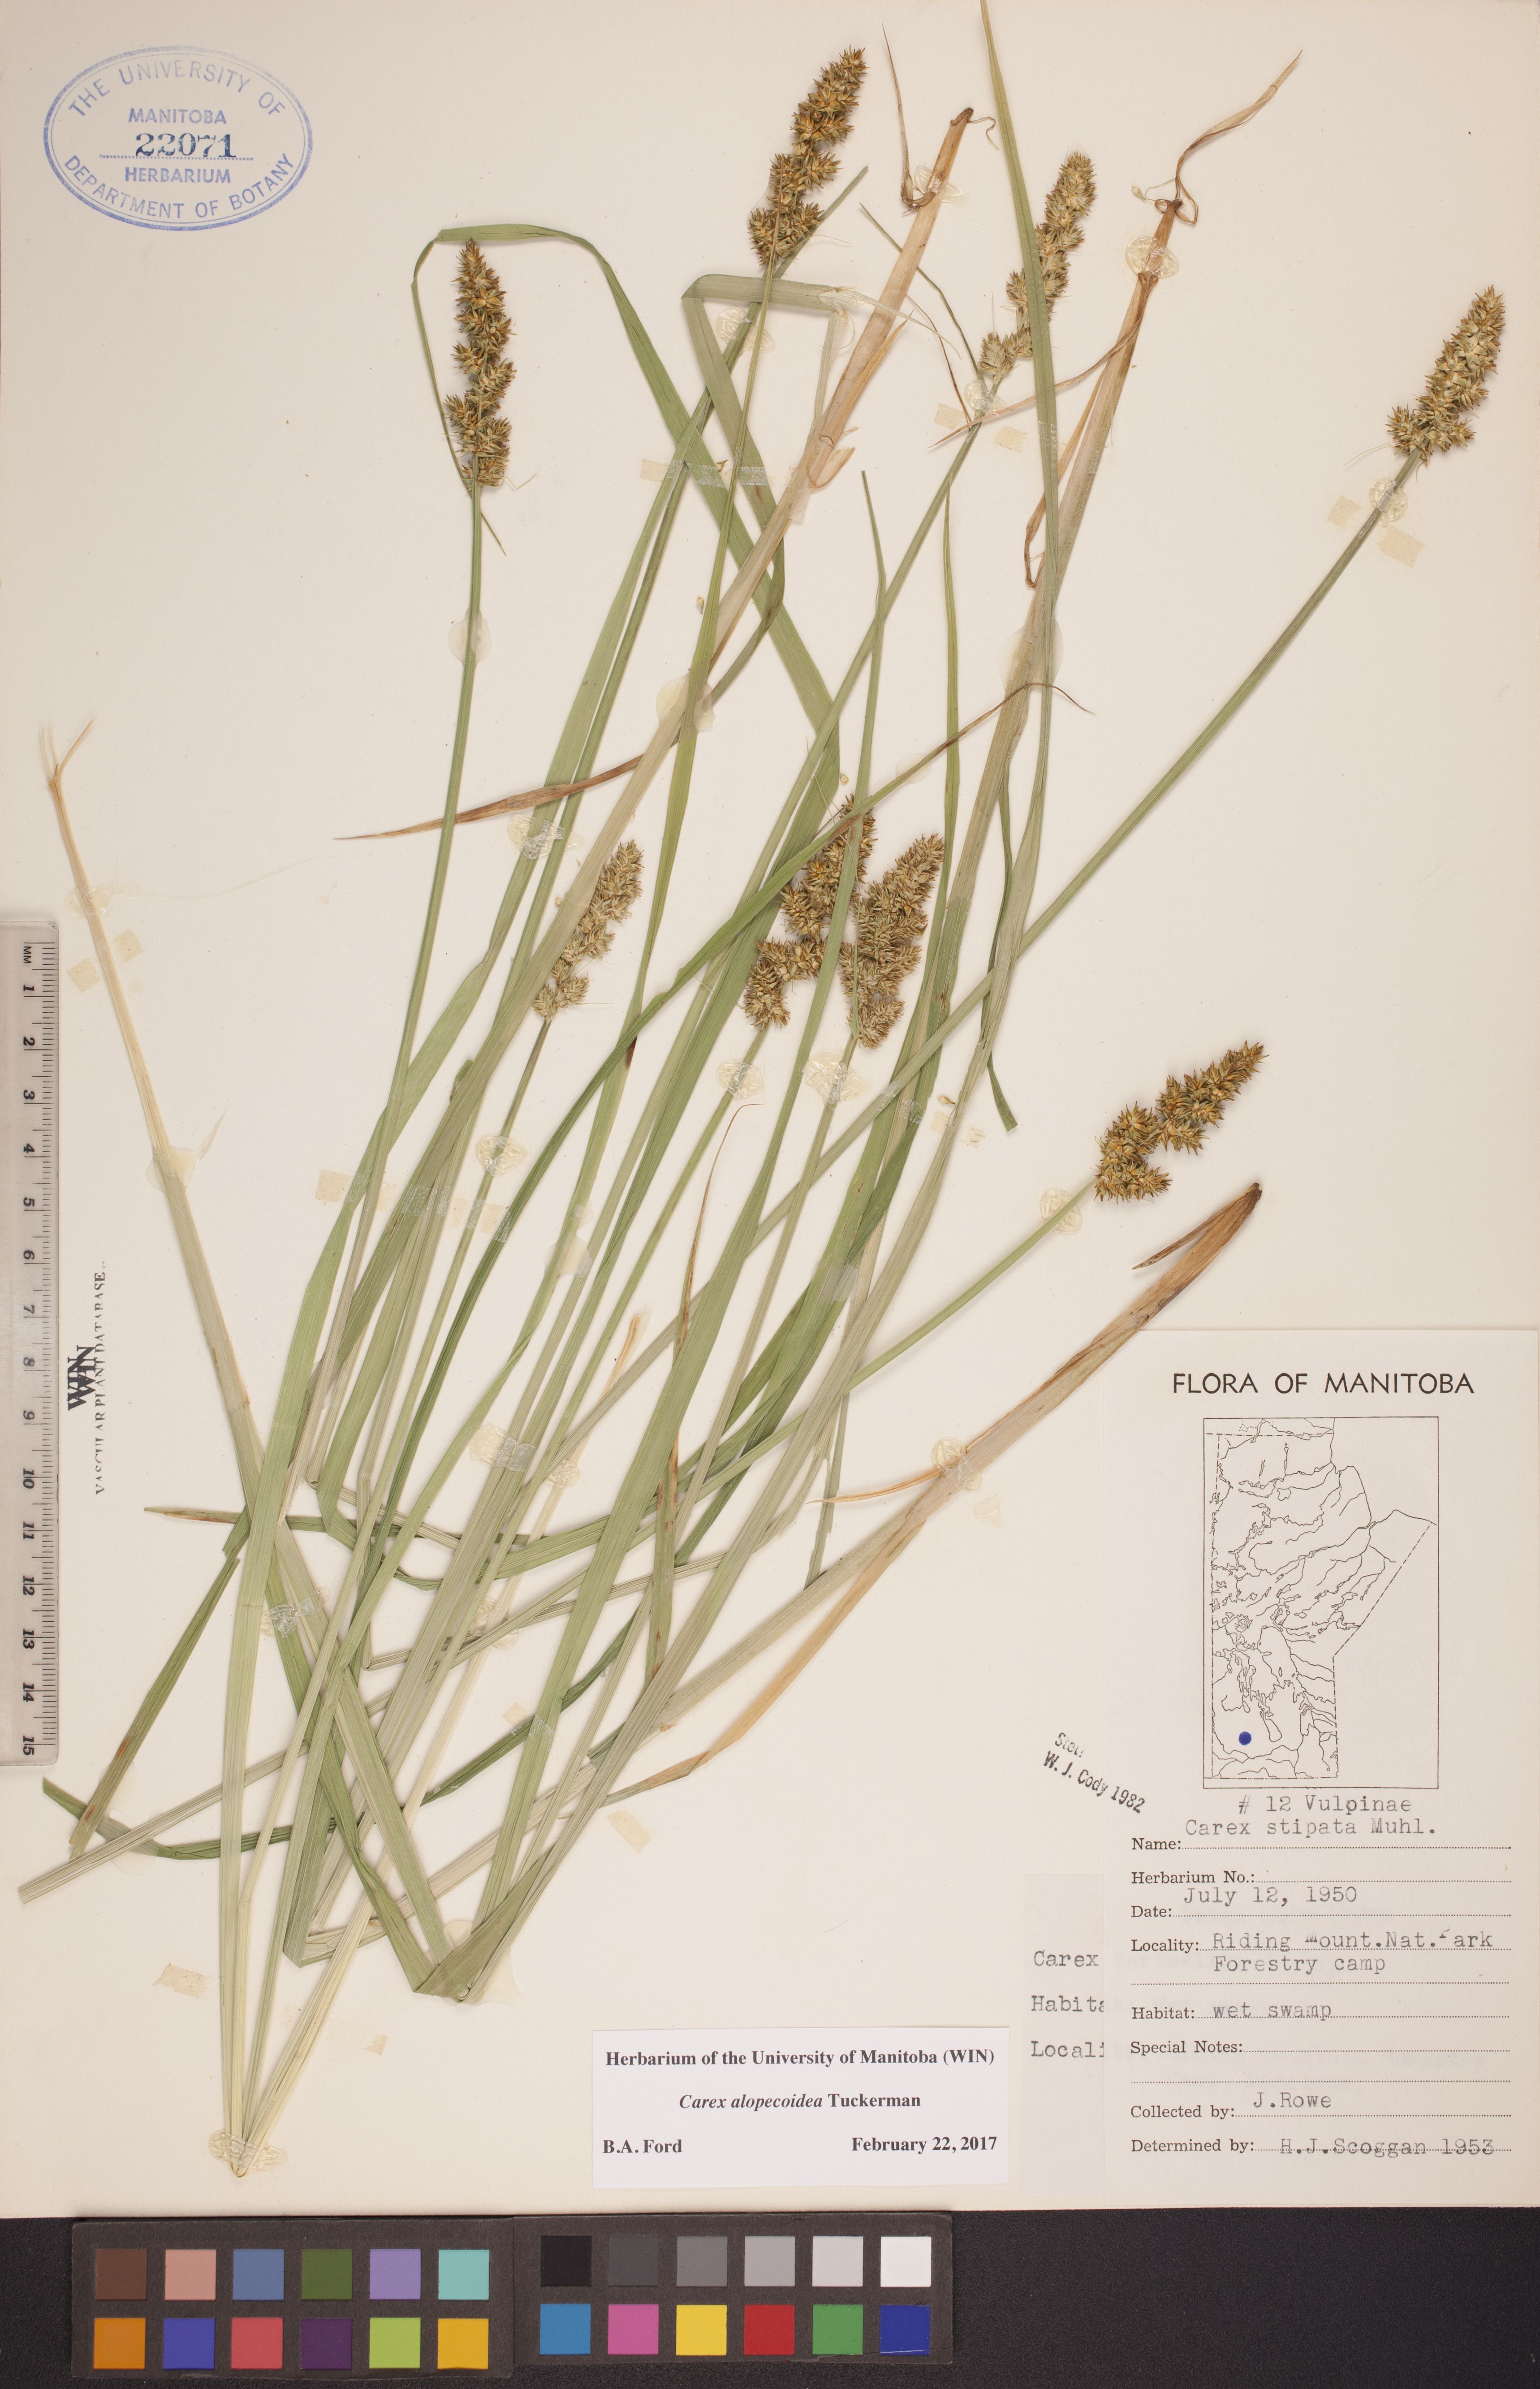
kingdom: Plantae
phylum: Tracheophyta
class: Liliopsida
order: Poales
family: Cyperaceae
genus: Carex
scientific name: Carex alopecoidea
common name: Brown-headed fox sedge
